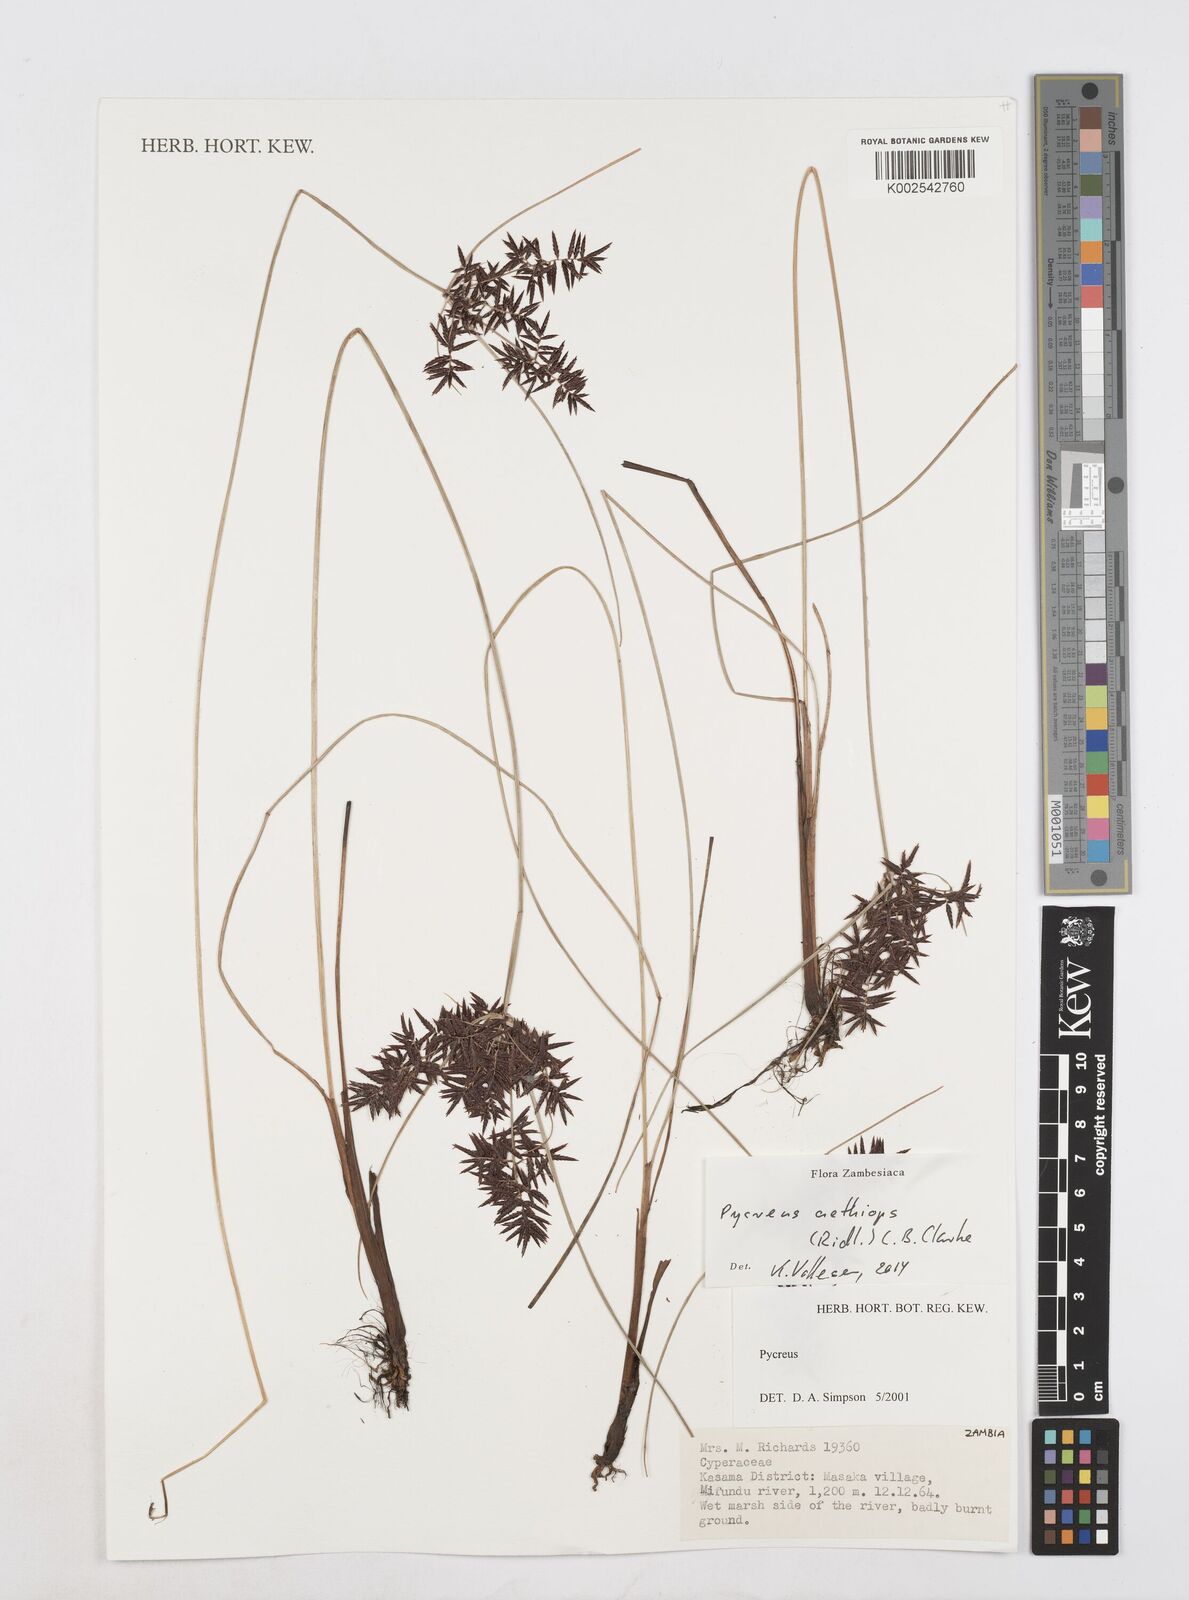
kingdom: Plantae
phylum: Tracheophyta
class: Liliopsida
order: Poales
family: Cyperaceae
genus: Cyperus
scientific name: Cyperus aethiops
